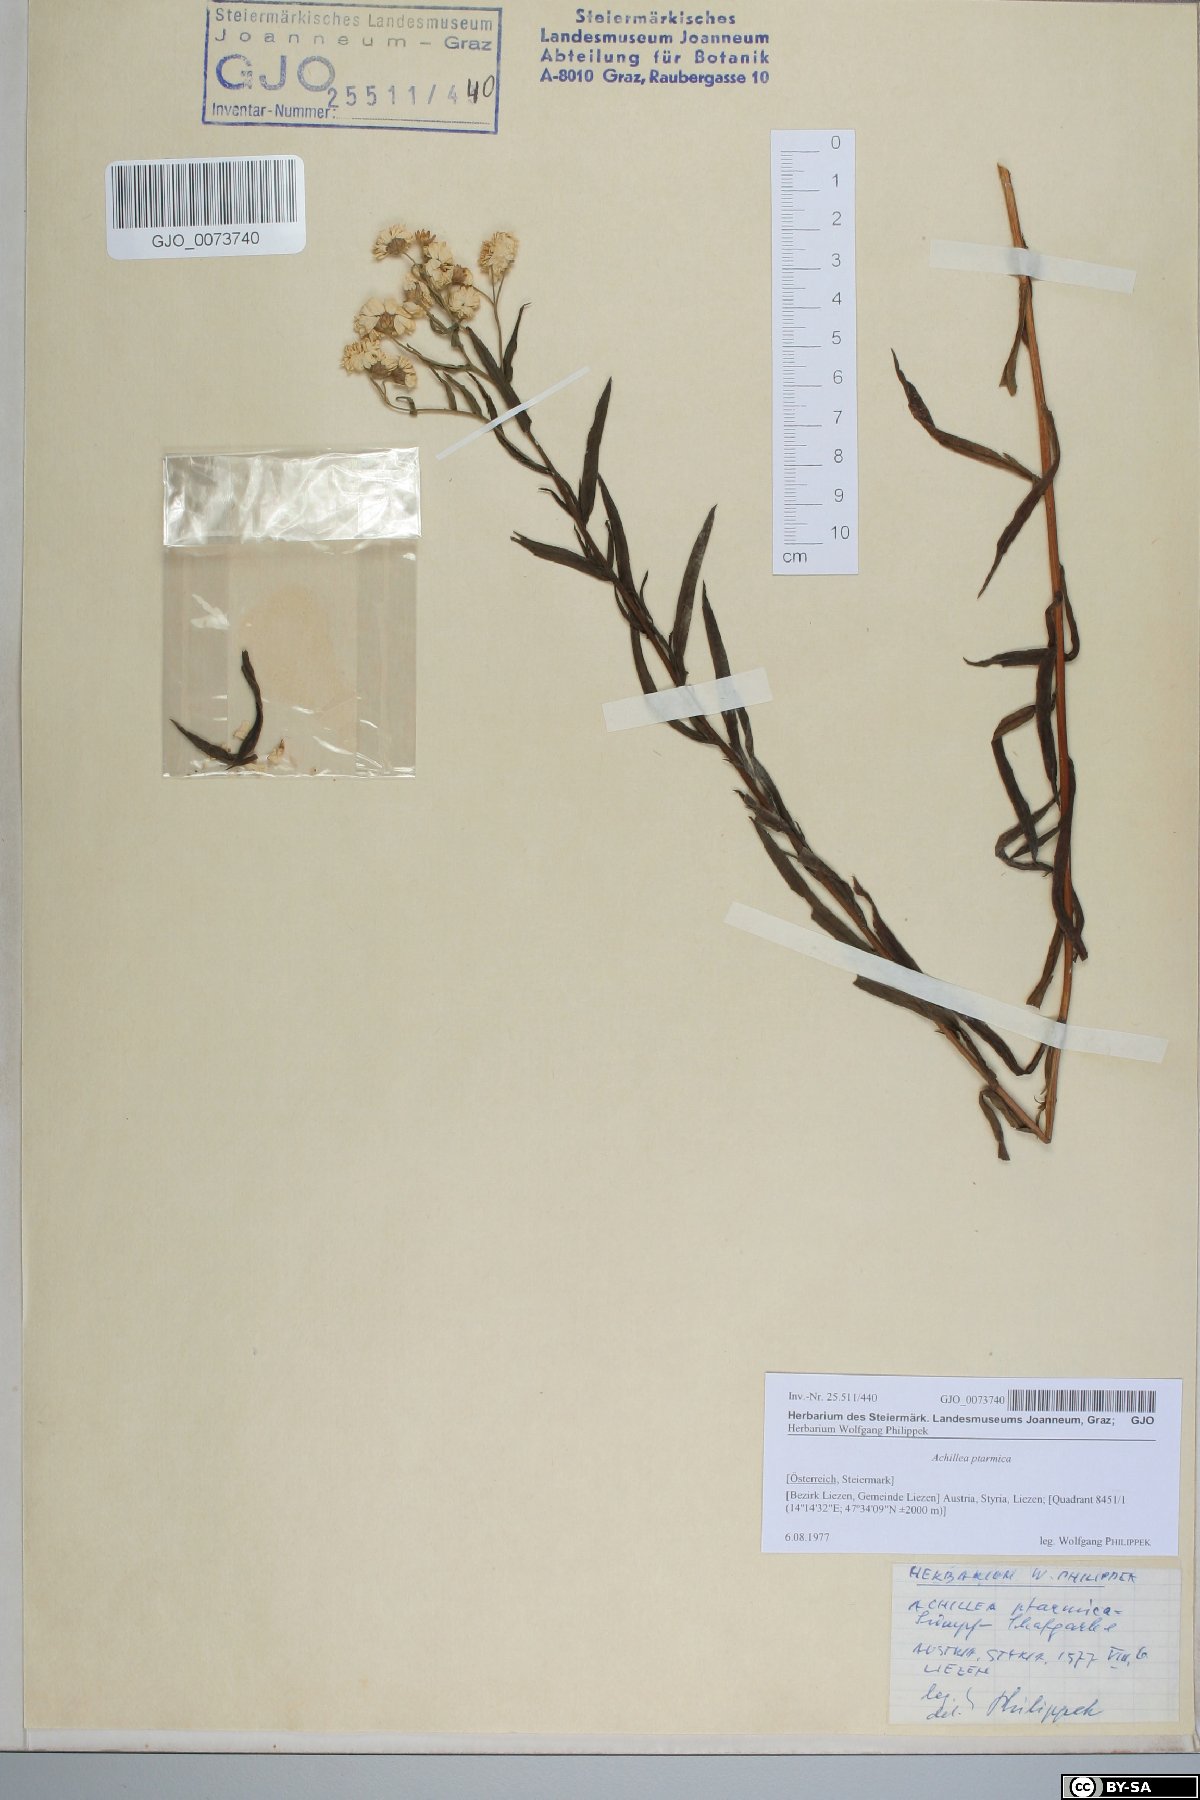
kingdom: Plantae
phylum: Tracheophyta
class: Magnoliopsida
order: Asterales
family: Asteraceae
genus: Achillea
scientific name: Achillea ptarmica
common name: Sneezeweed
